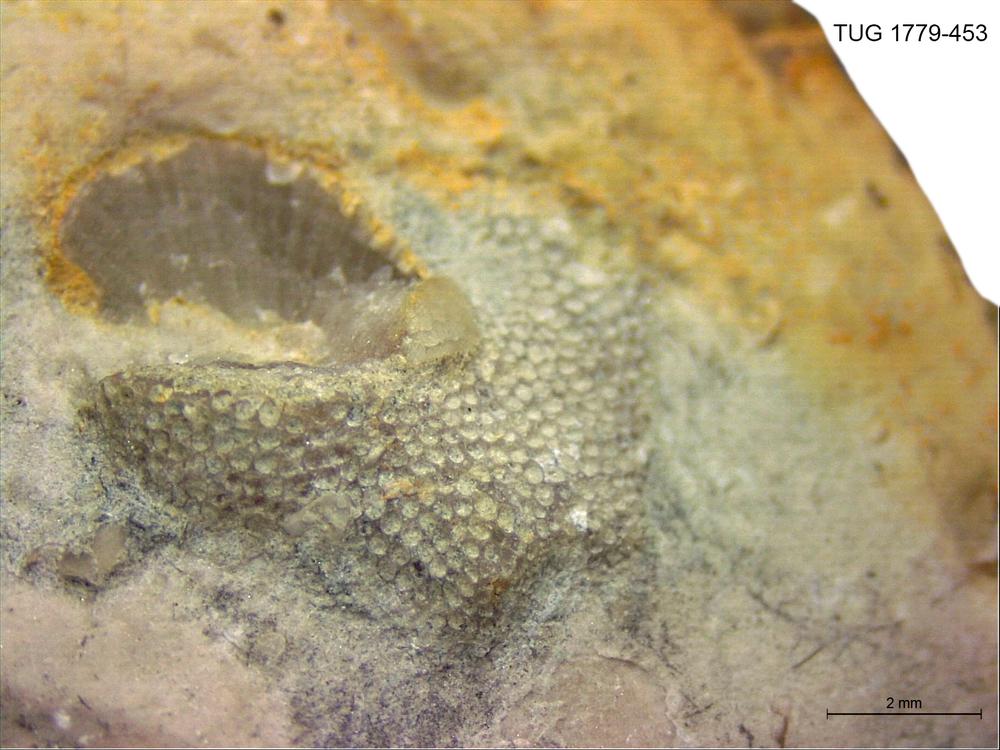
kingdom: Animalia
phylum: Bryozoa
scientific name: Bryozoa
